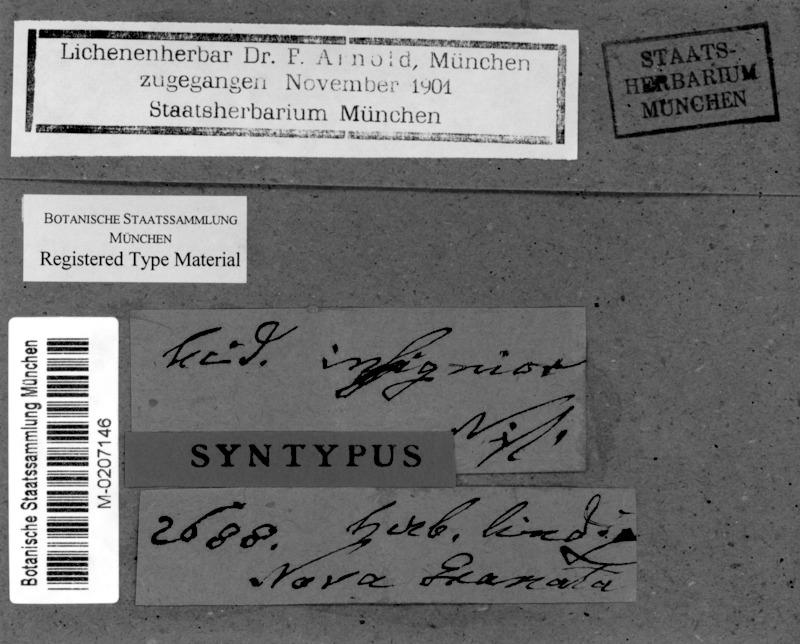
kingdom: Fungi
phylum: Ascomycota
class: Arthoniomycetes
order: Arthoniales
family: Opegraphaceae
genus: Cresponea
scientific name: Cresponea leprieurii
